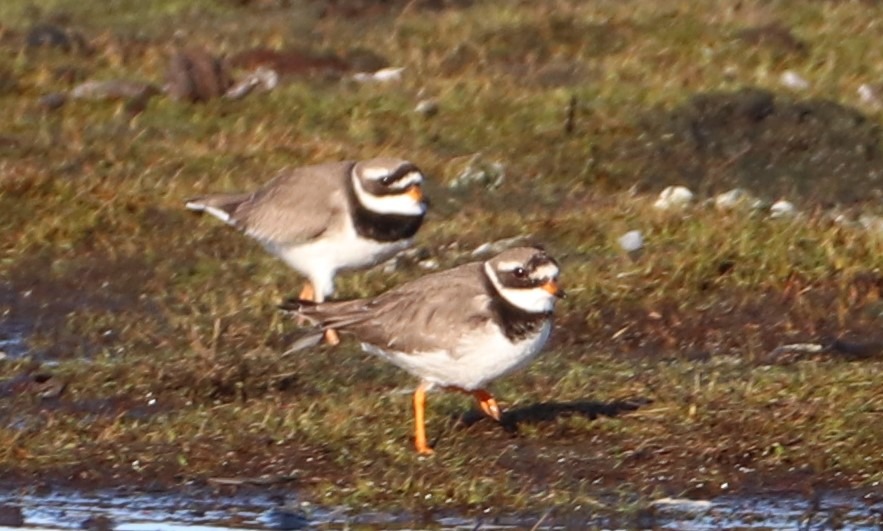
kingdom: Animalia
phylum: Chordata
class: Aves
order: Charadriiformes
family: Charadriidae
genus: Charadrius
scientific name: Charadrius hiaticula
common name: Stor præstekrave
